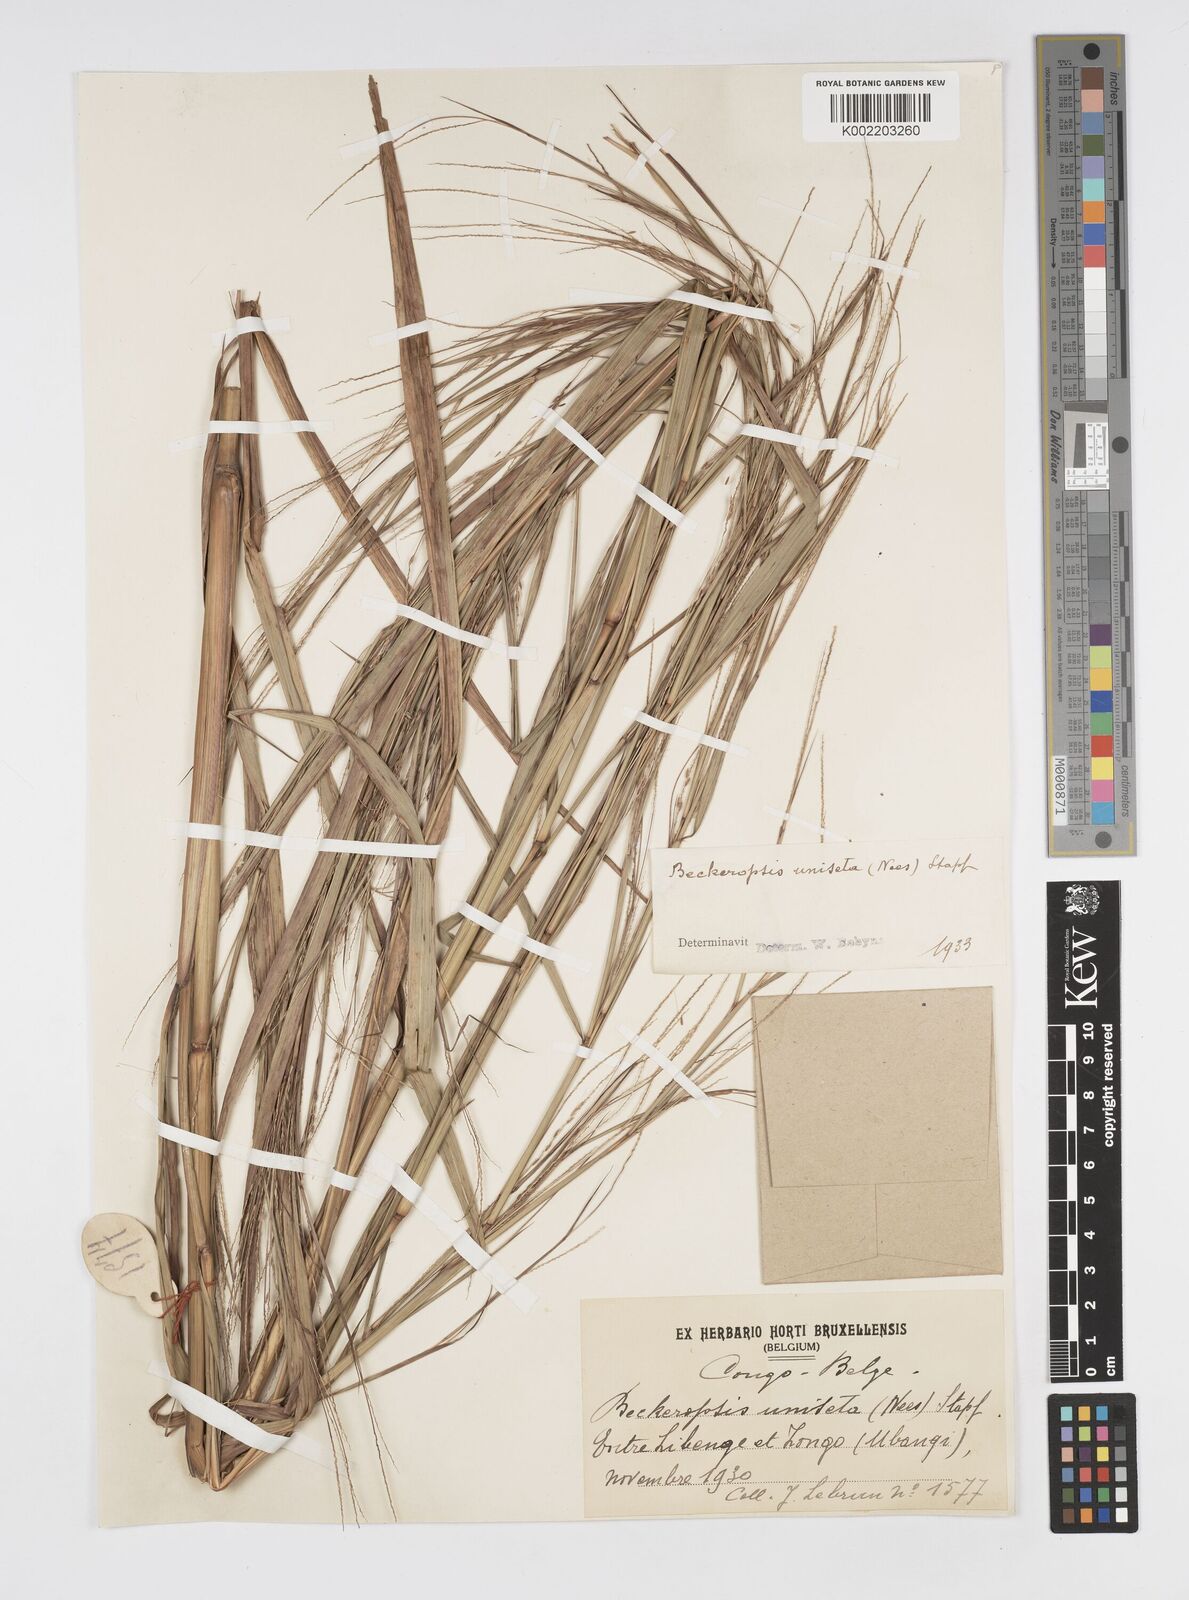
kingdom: Plantae
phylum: Tracheophyta
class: Liliopsida
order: Poales
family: Poaceae
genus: Cenchrus
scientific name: Cenchrus unisetus
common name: Natal grass
